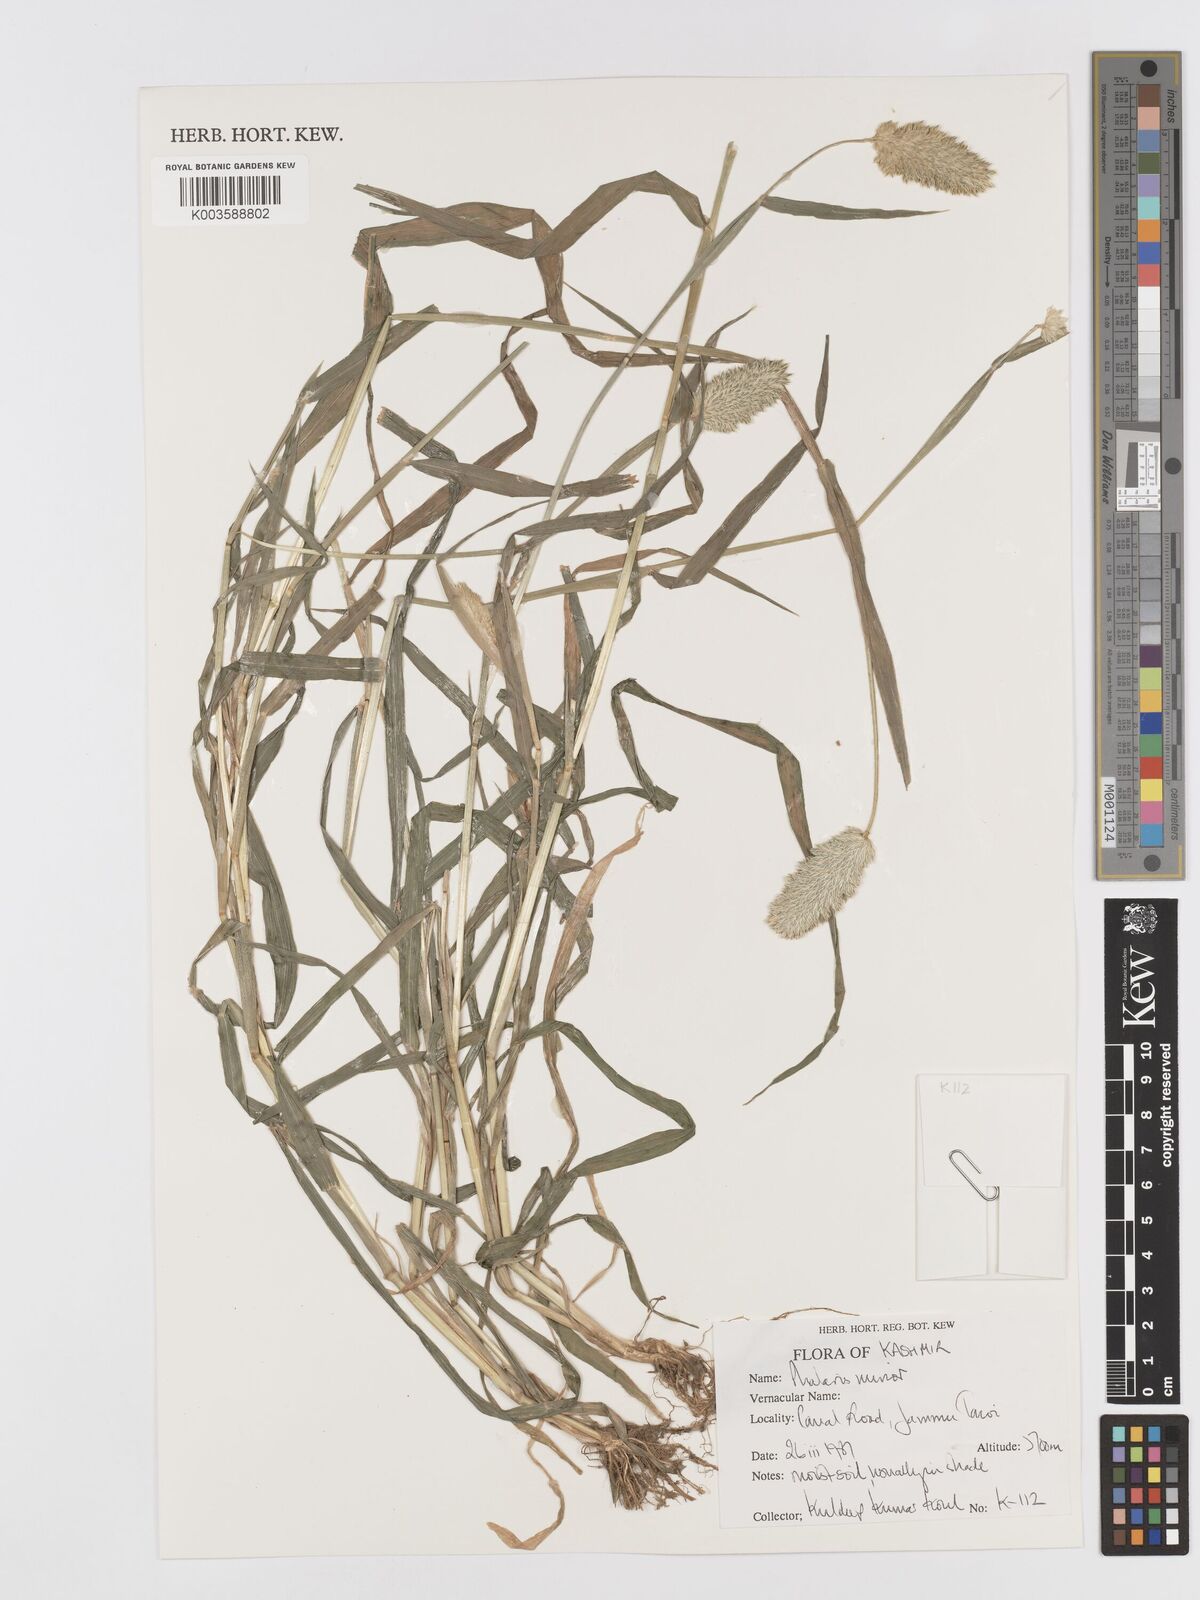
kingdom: Plantae
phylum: Tracheophyta
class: Liliopsida
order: Poales
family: Poaceae
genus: Phalaris
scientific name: Phalaris minor
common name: Littleseed canarygrass
